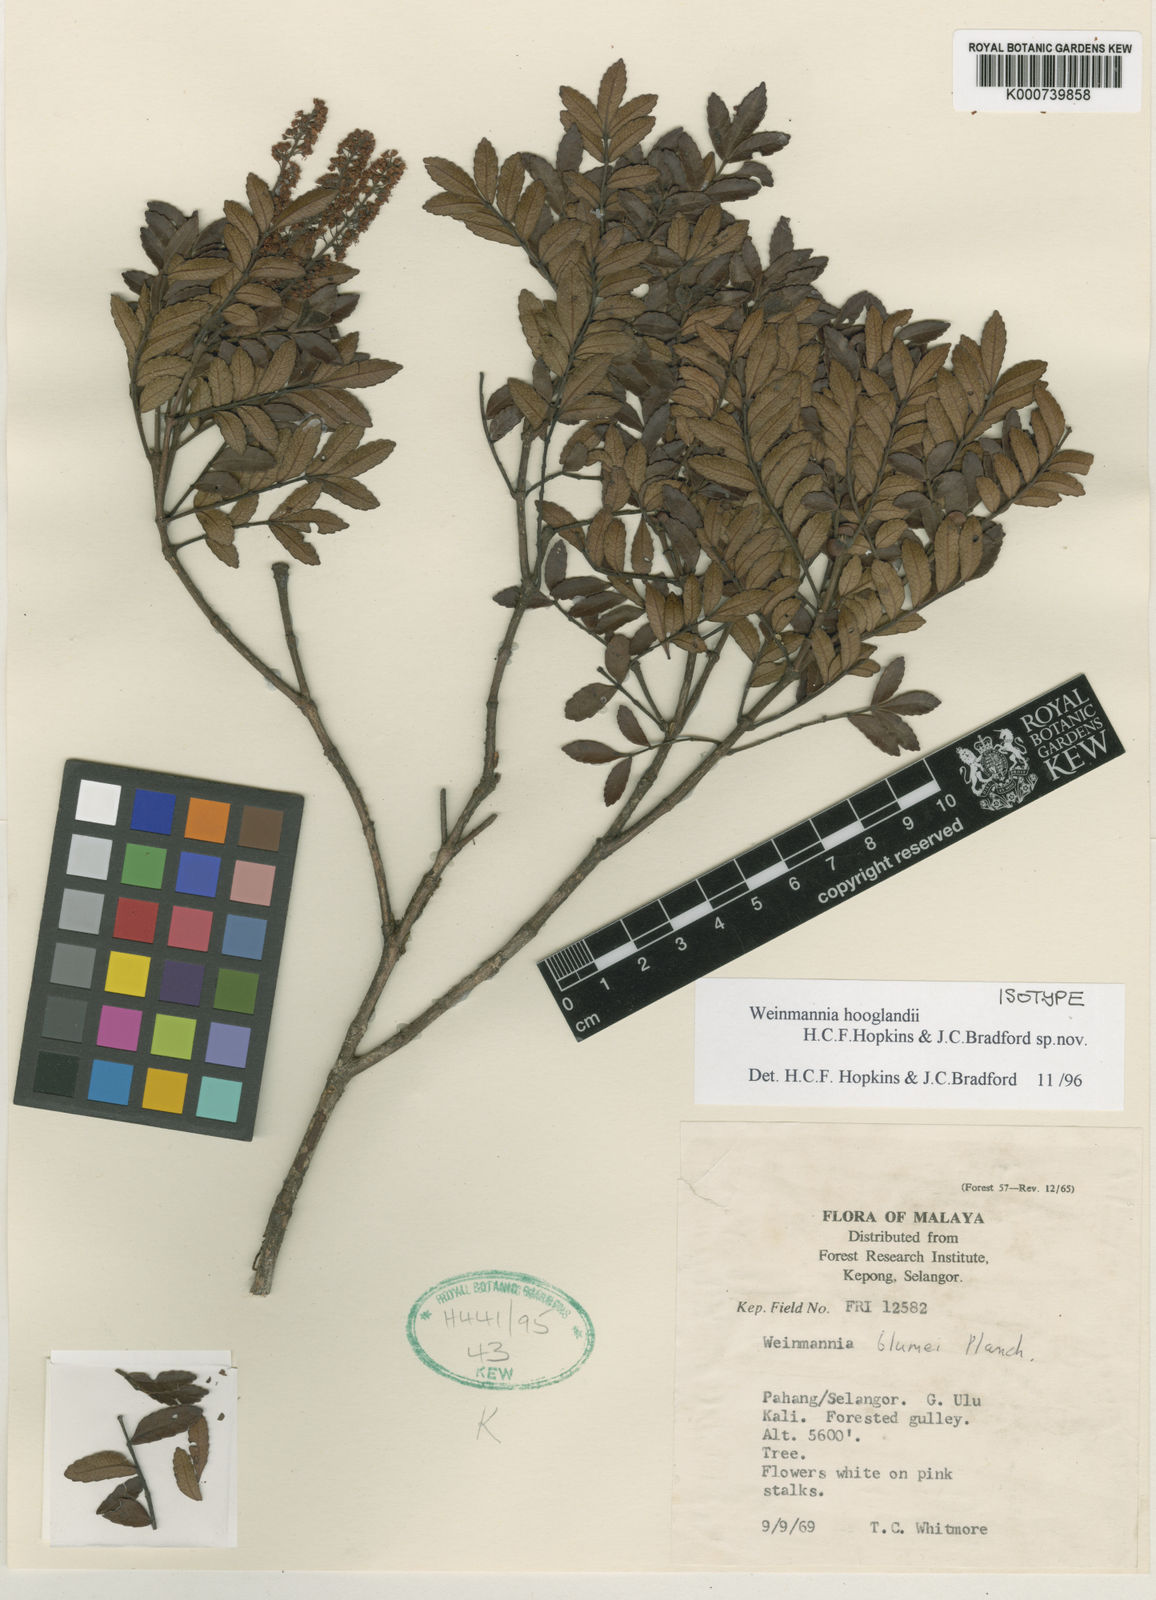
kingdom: Plantae
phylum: Tracheophyta
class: Magnoliopsida
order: Oxalidales
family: Cunoniaceae
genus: Pterophylla
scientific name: Pterophylla hooglandii
